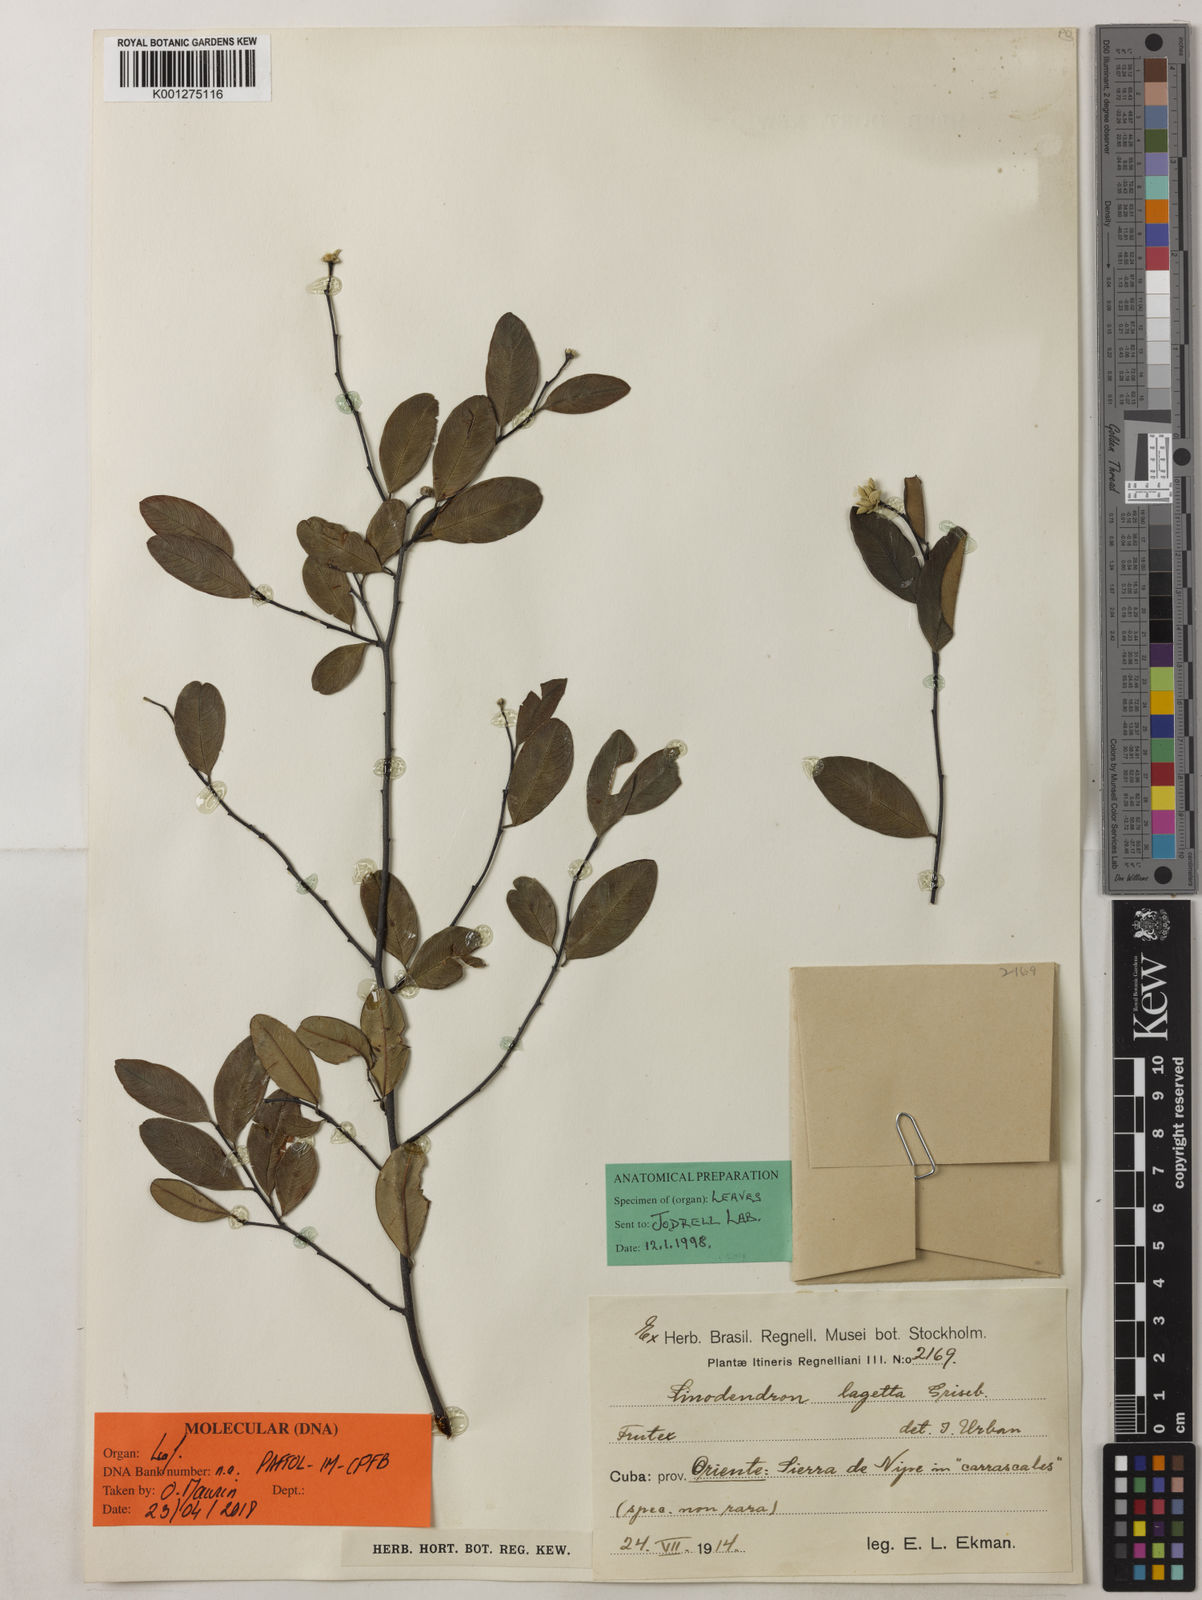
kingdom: Plantae
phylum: Tracheophyta
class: Magnoliopsida
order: Malvales
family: Thymelaeaceae
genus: Linodendron
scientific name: Linodendron cubanum
